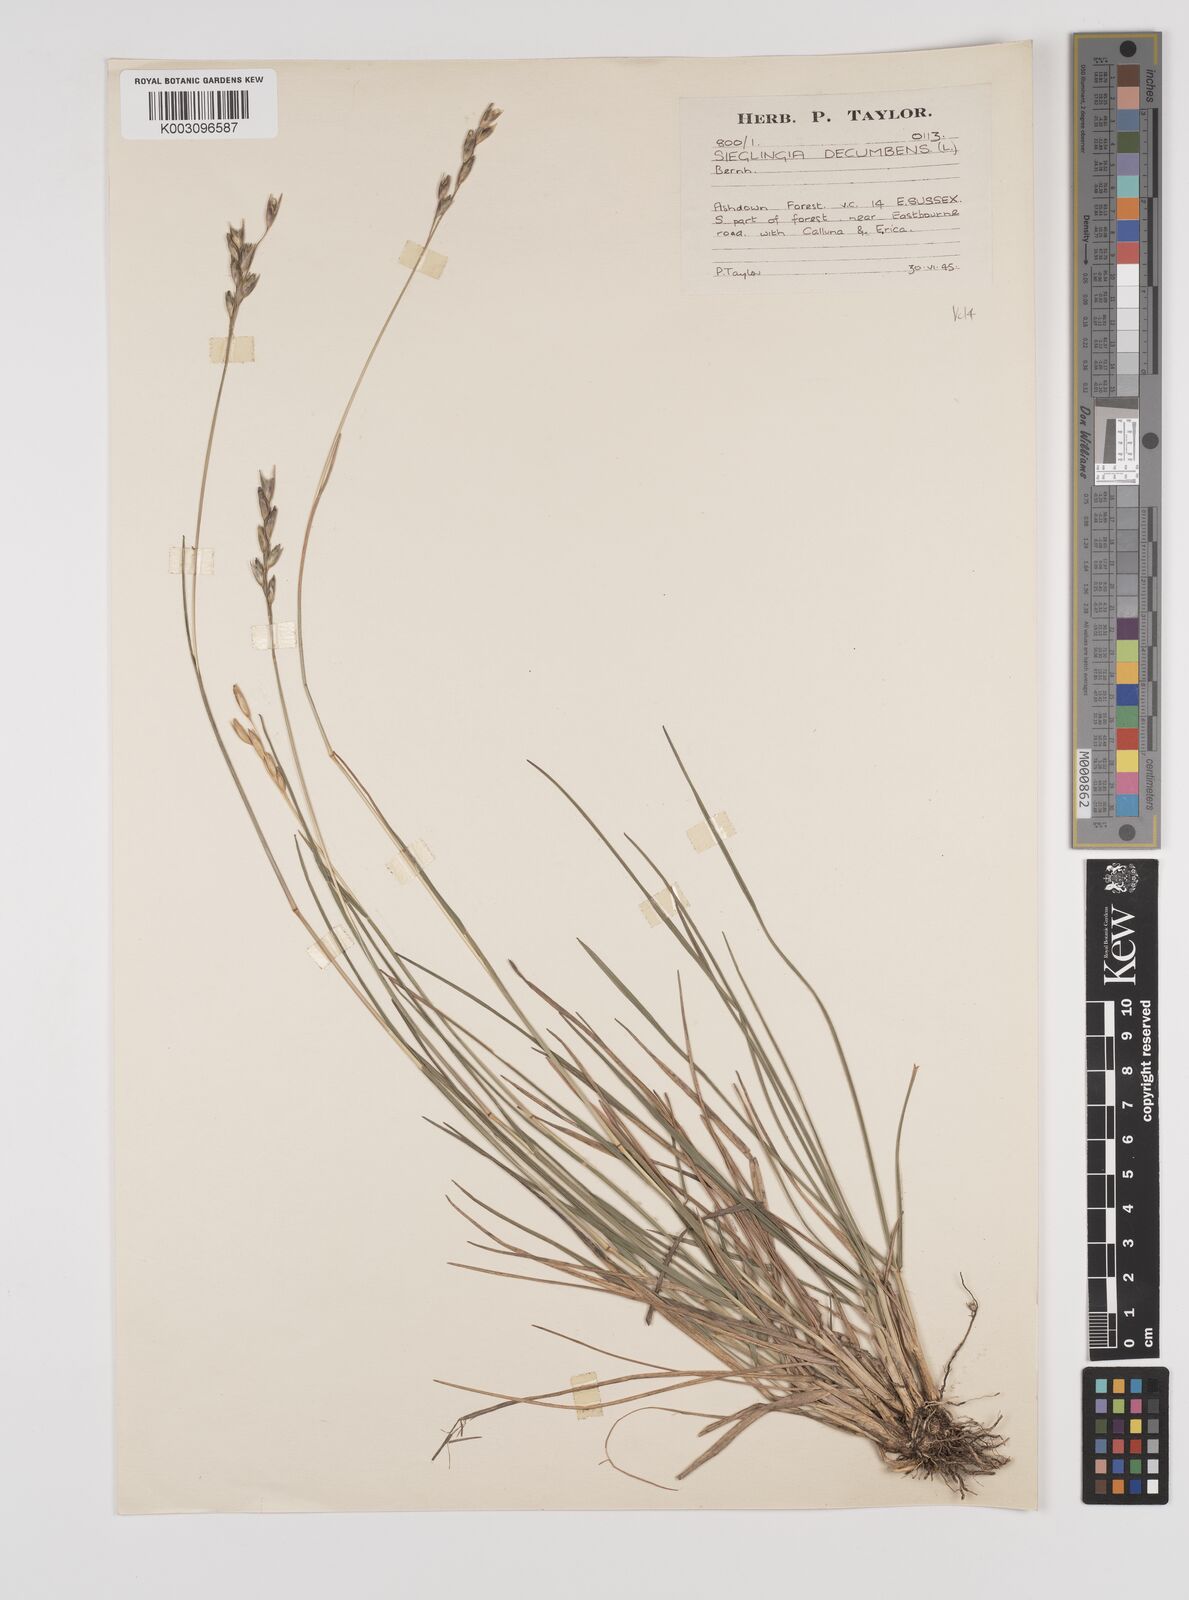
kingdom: Plantae
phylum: Tracheophyta
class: Liliopsida
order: Poales
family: Poaceae
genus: Danthonia
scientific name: Danthonia decumbens
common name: Common heathgrass
